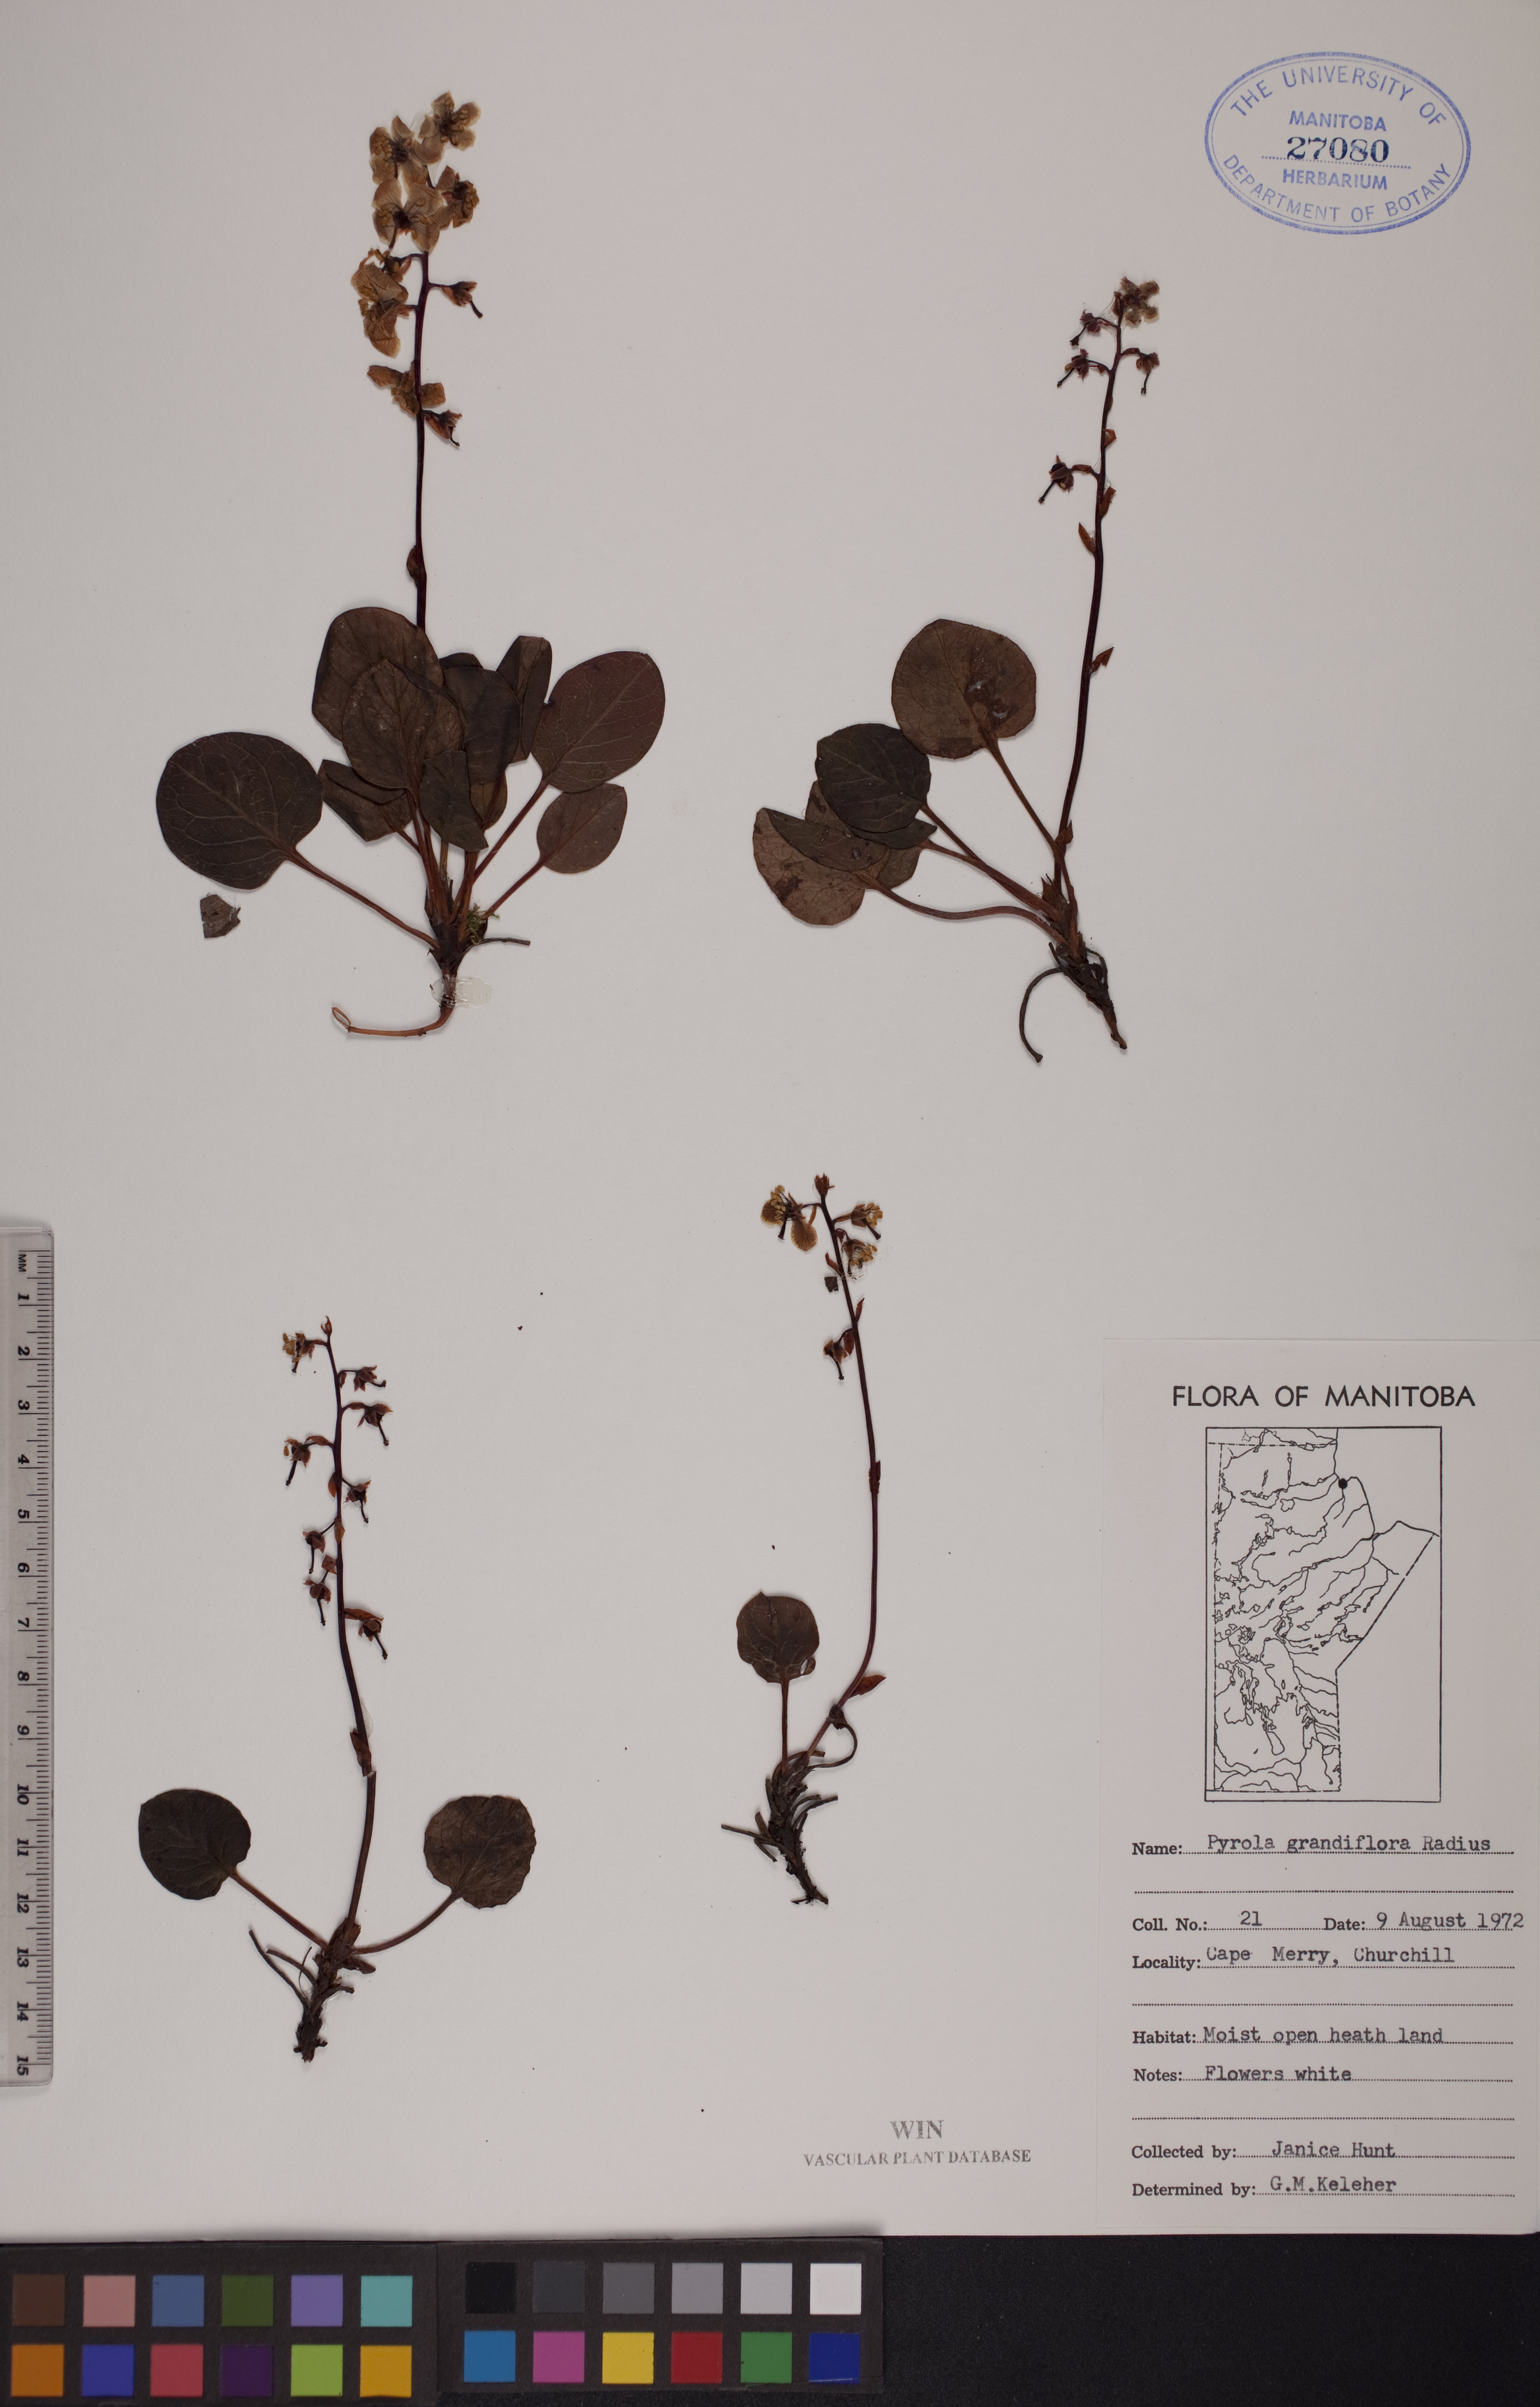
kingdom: Plantae
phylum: Tracheophyta
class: Magnoliopsida
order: Ericales
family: Ericaceae
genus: Pyrola
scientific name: Pyrola grandiflora
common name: Arctic pyrola
